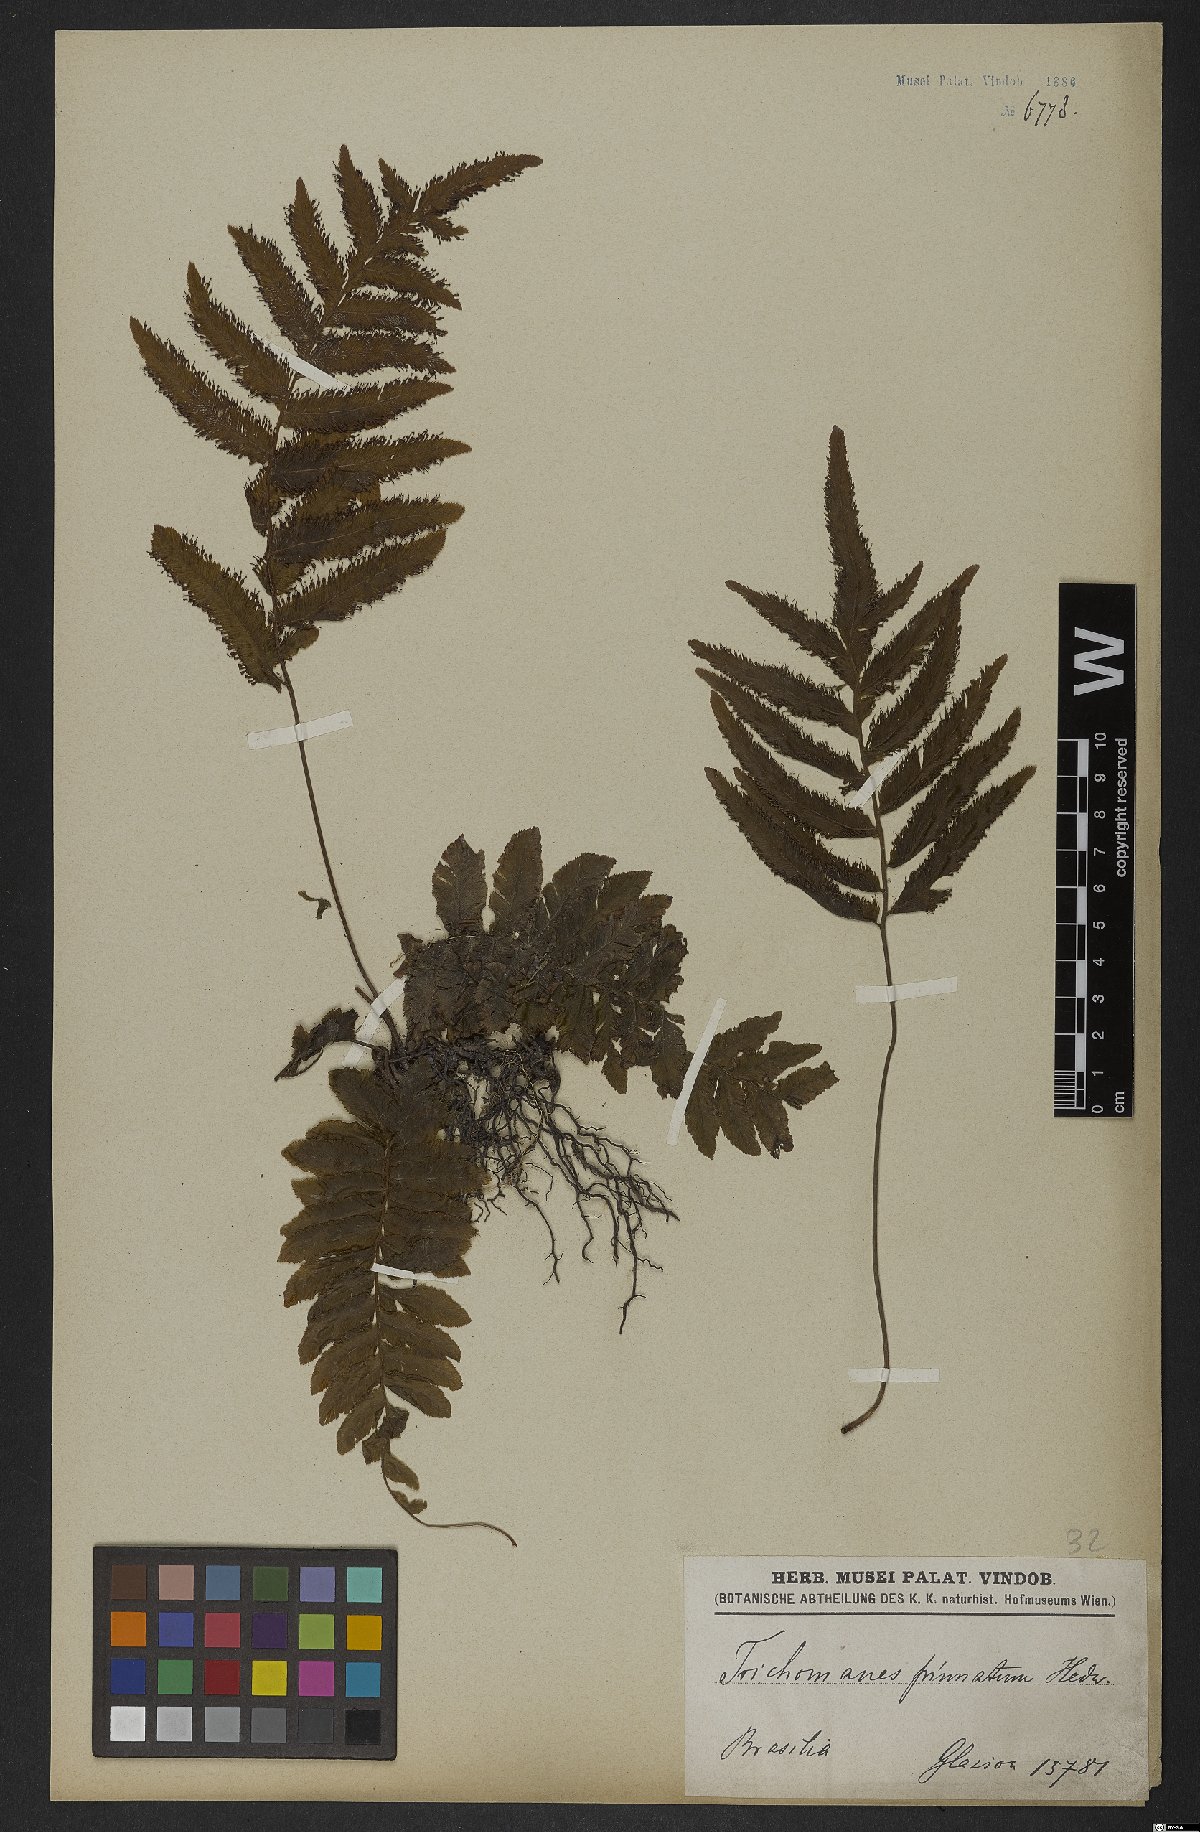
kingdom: Plantae
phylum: Tracheophyta
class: Polypodiopsida
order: Hymenophyllales
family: Hymenophyllaceae
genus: Trichomanes
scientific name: Trichomanes pinnatum
